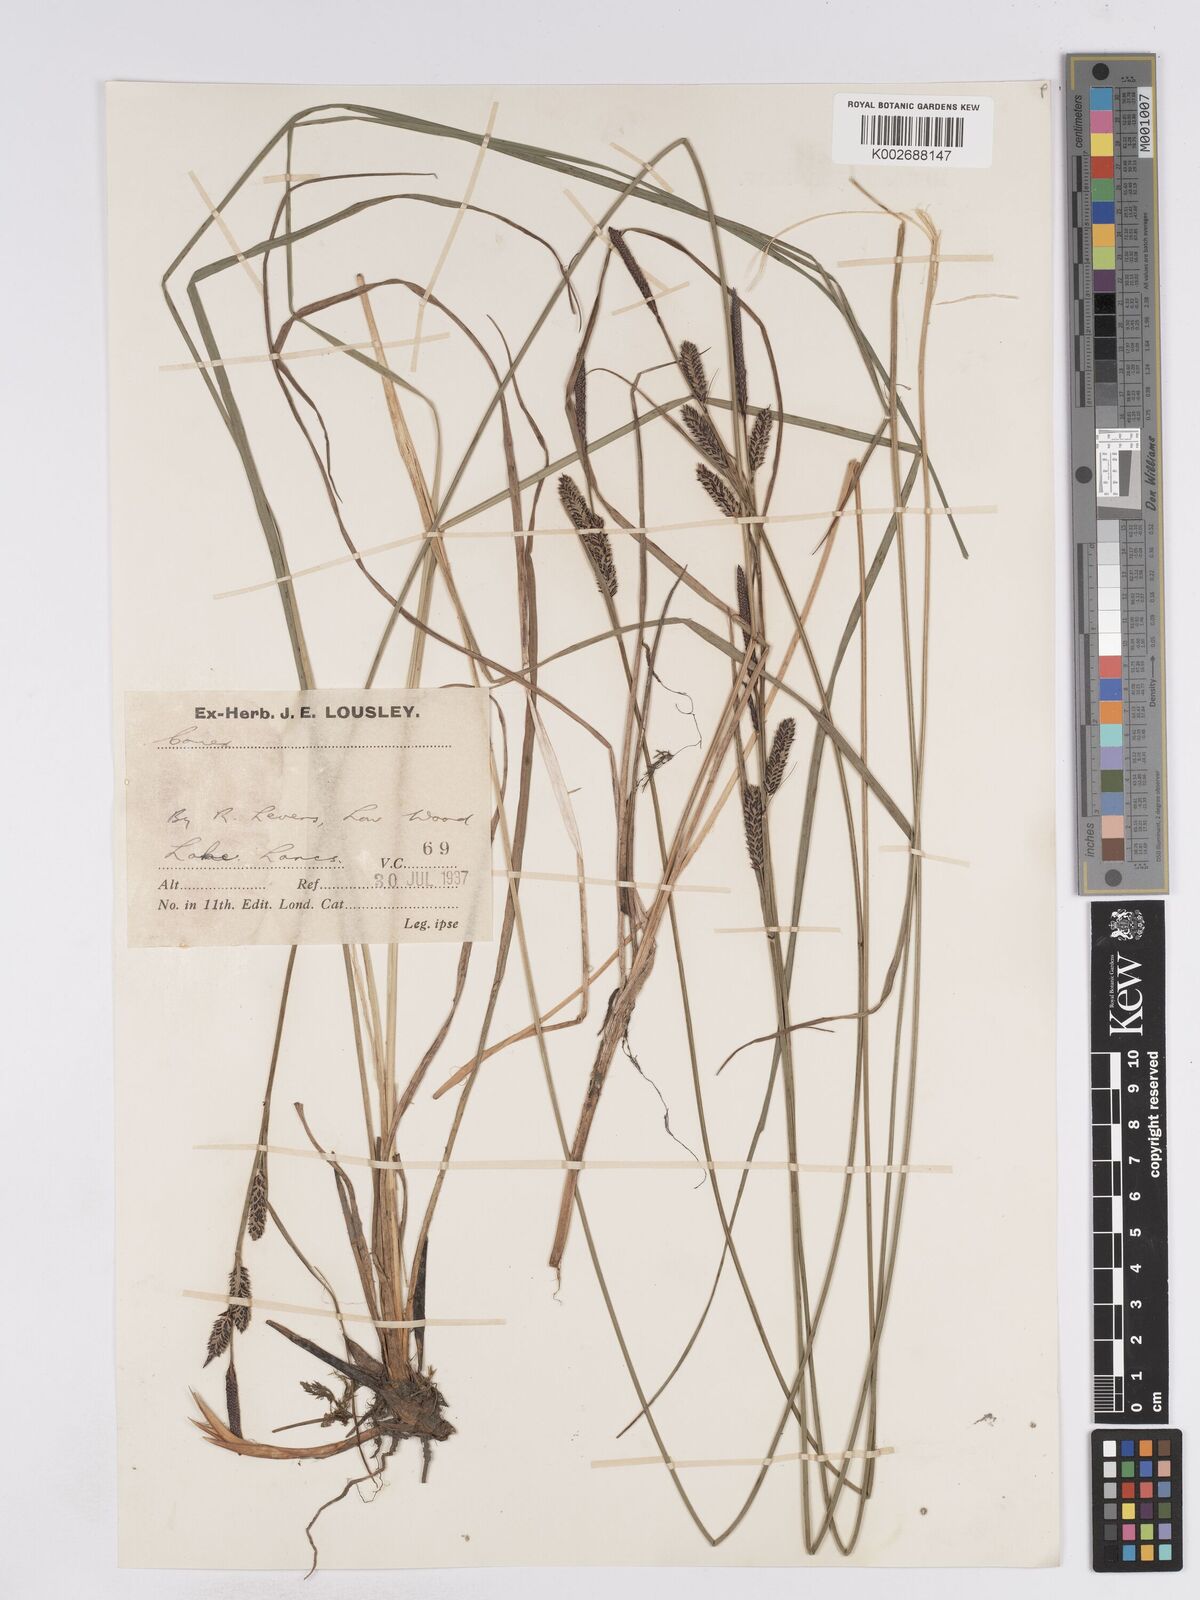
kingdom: Plantae
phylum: Tracheophyta
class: Liliopsida
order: Poales
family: Cyperaceae
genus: Carex
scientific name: Carex elata
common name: Tufted sedge
